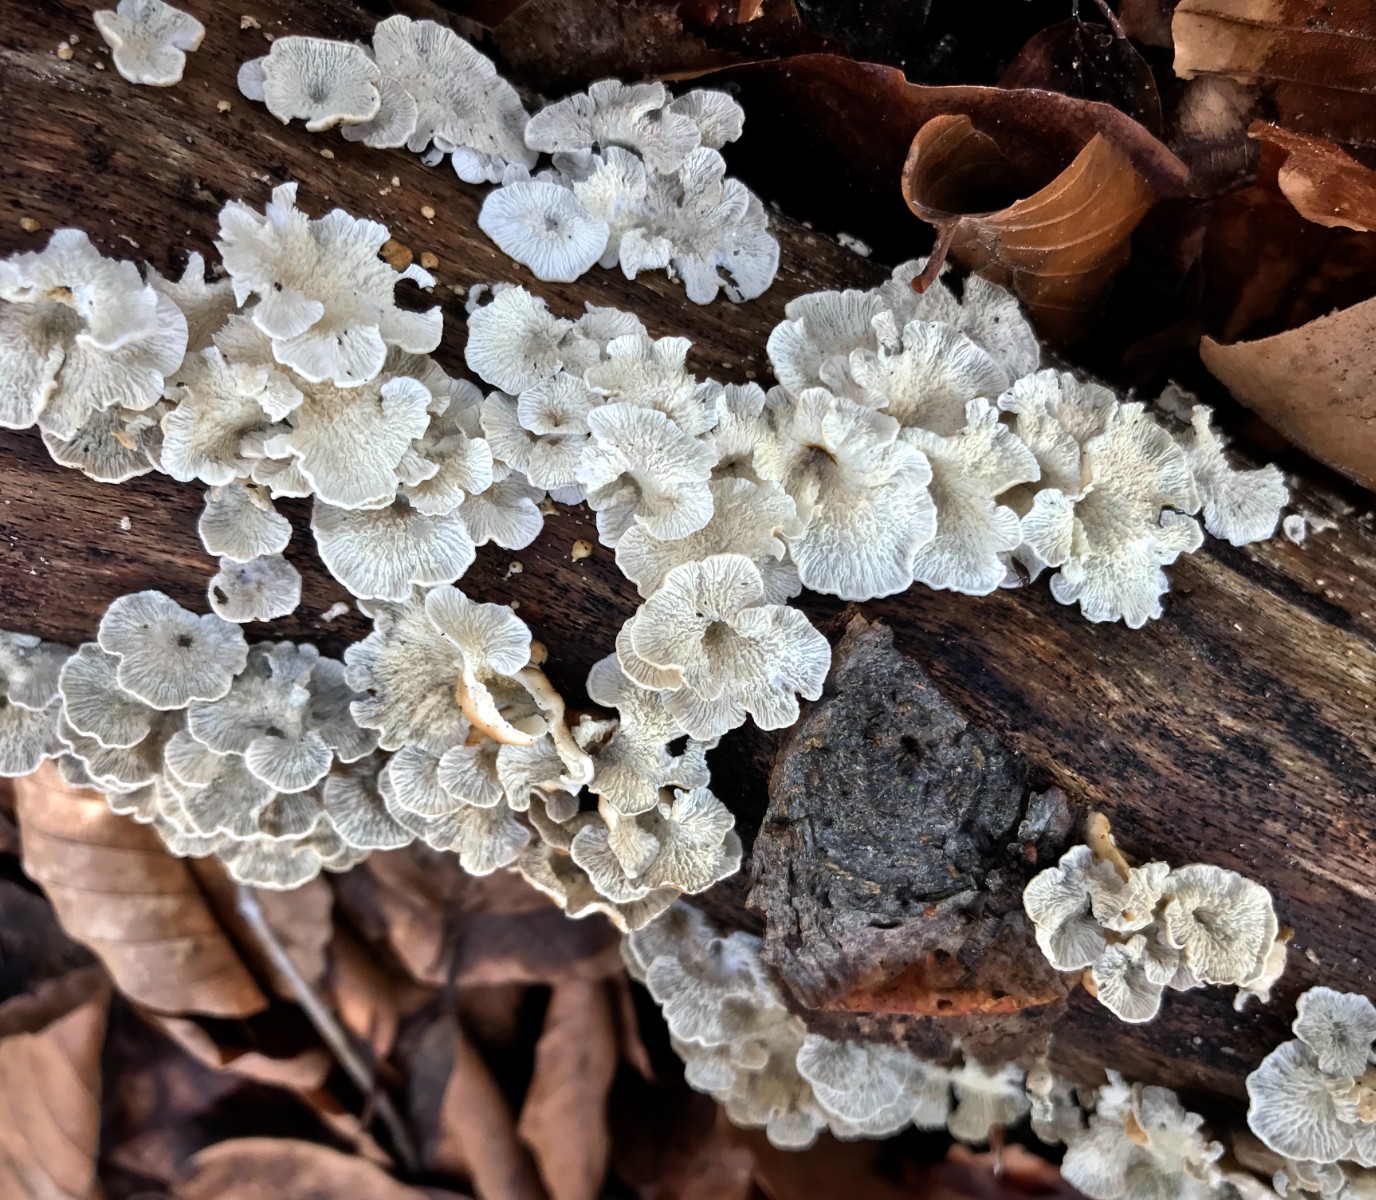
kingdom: Fungi
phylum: Basidiomycota
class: Agaricomycetes
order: Amylocorticiales
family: Amylocorticiaceae
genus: Plicaturopsis
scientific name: Plicaturopsis crispa
